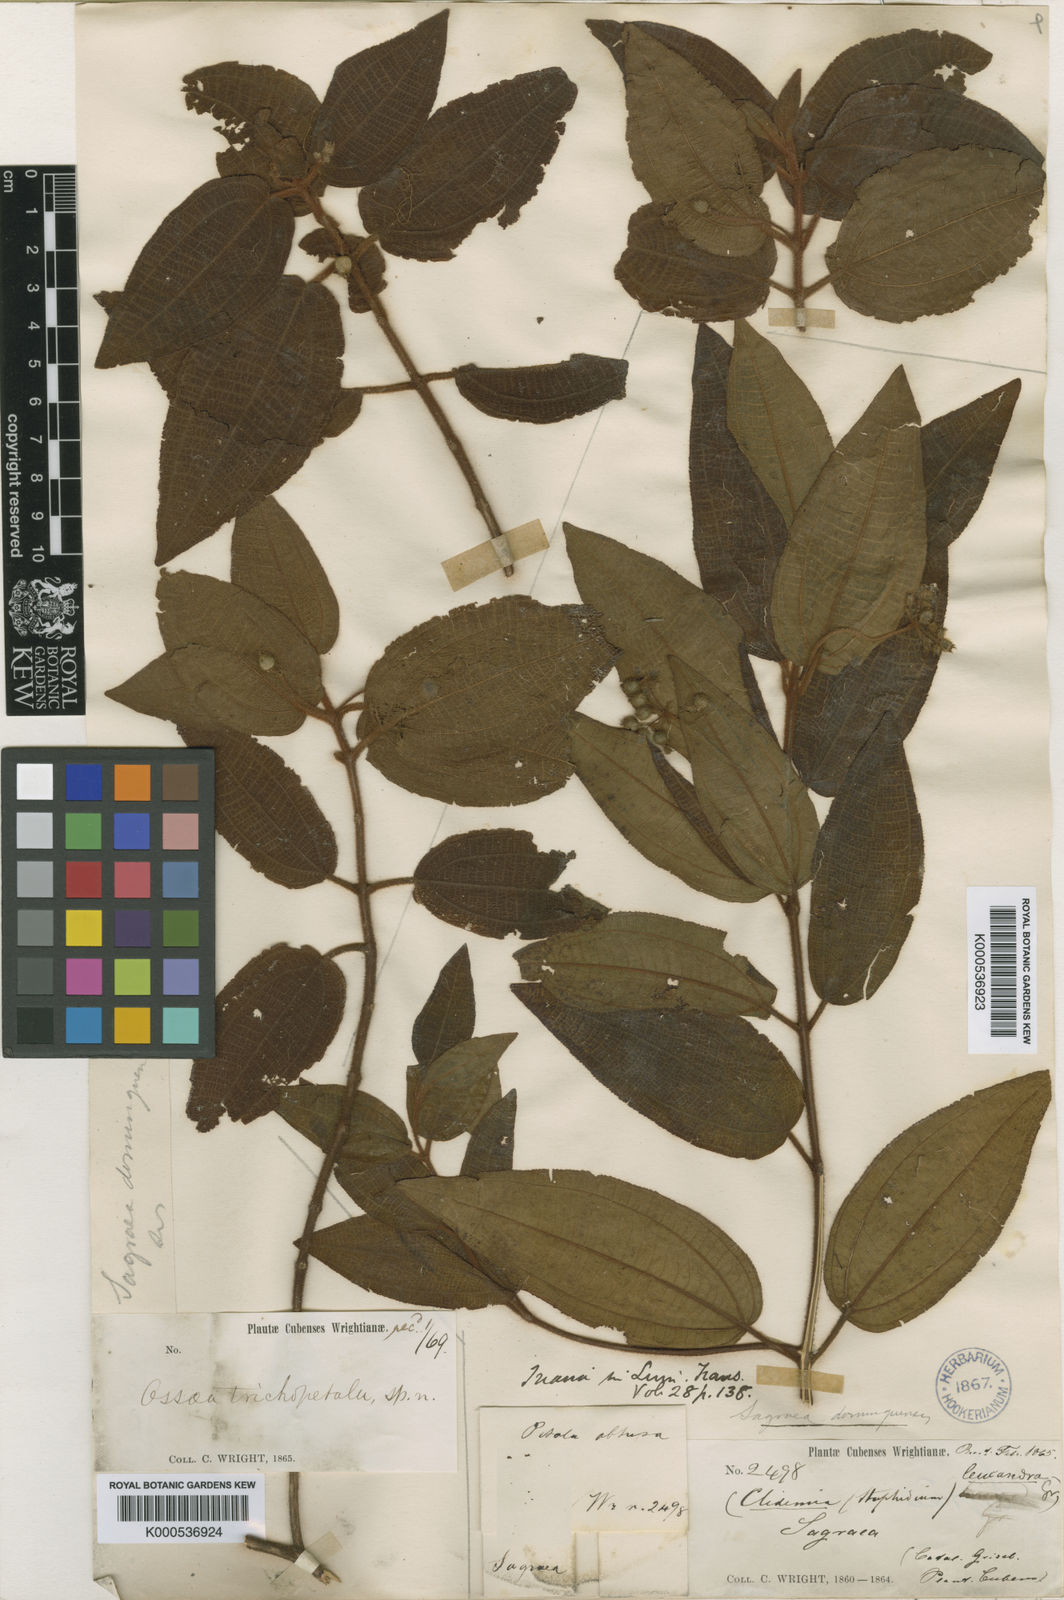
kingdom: Plantae
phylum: Tracheophyta
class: Magnoliopsida
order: Myrtales
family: Melastomataceae
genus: Miconia
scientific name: Miconia leucandra
